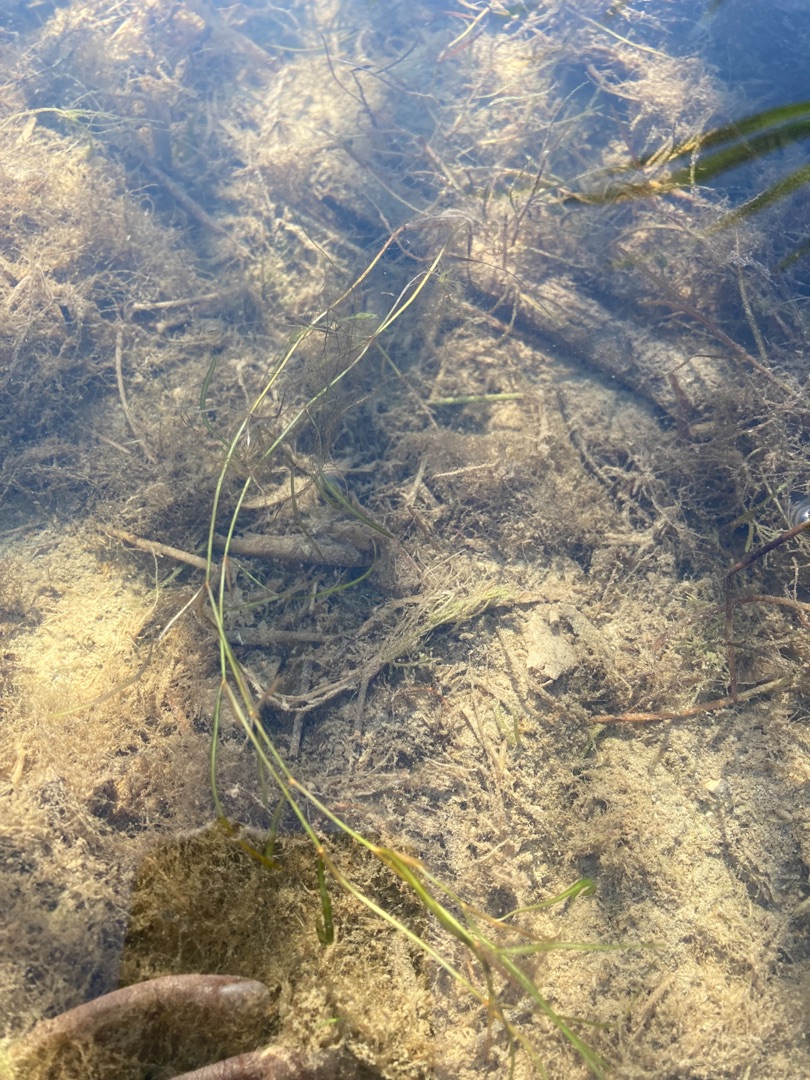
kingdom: Plantae
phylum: Tracheophyta
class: Liliopsida
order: Alismatales
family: Potamogetonaceae
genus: Potamogeton
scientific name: Potamogeton berchtoldii
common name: Liden vandaks
